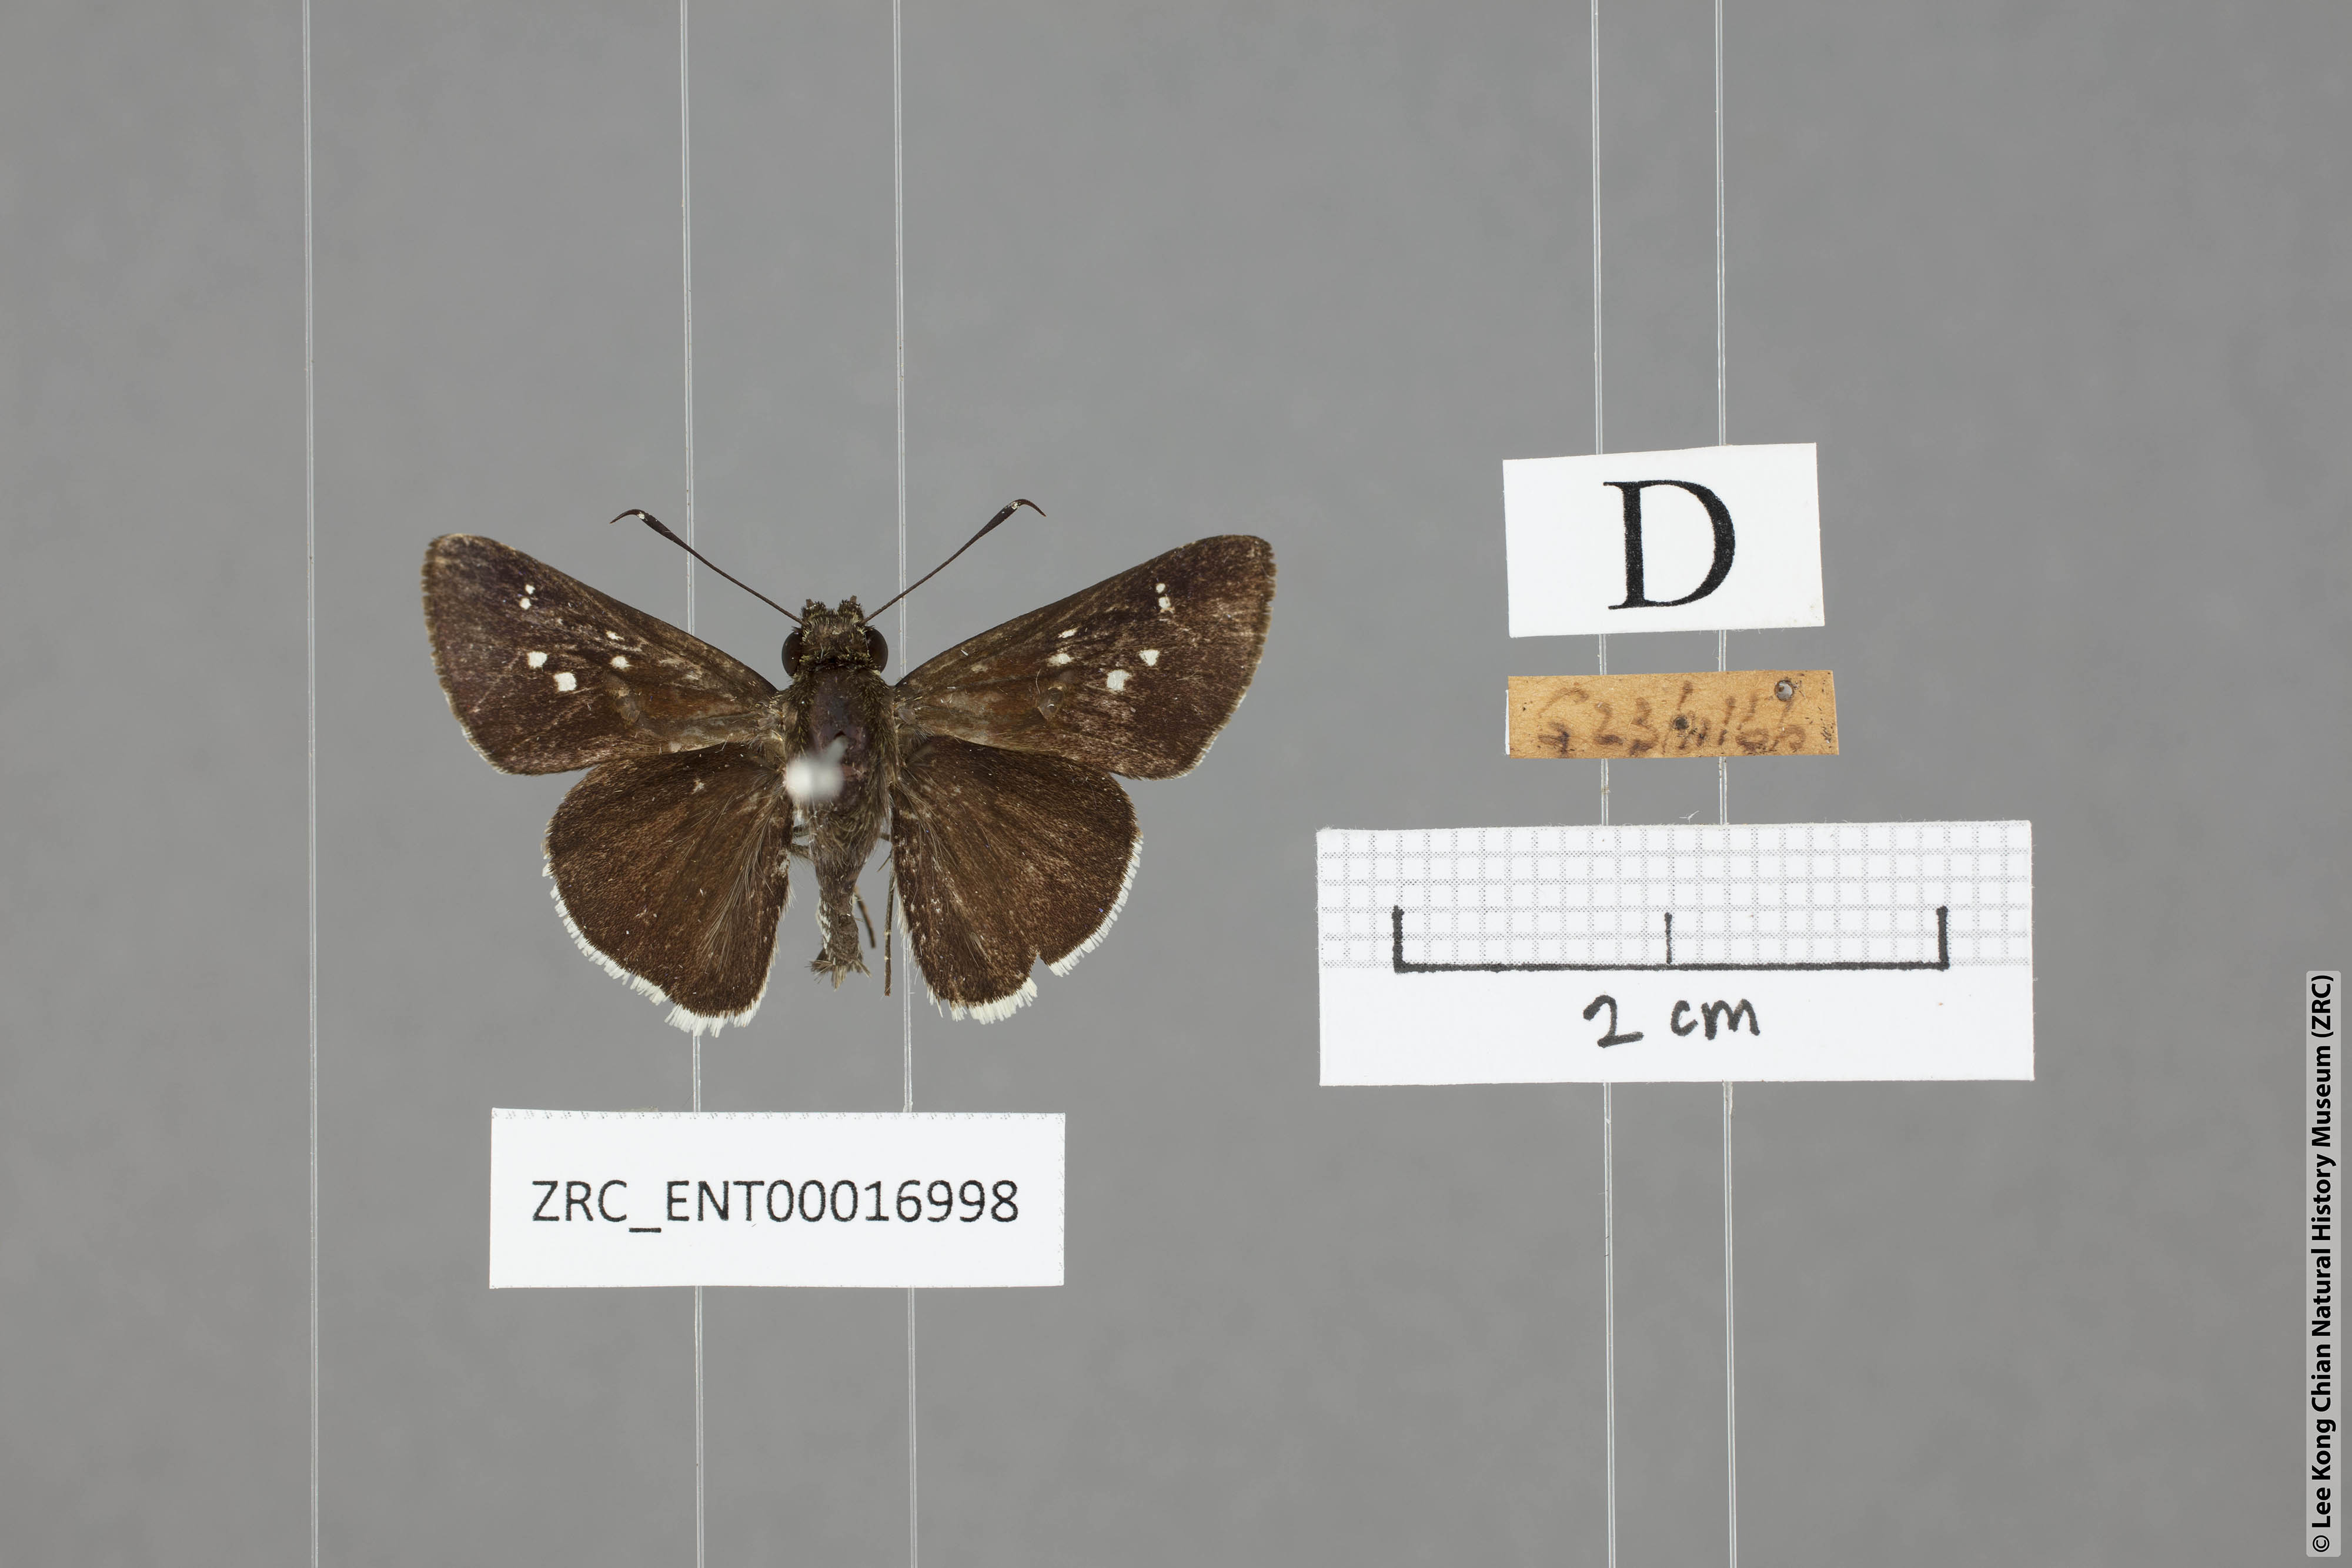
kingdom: Animalia
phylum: Arthropoda
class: Insecta
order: Lepidoptera
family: Hesperiidae
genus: Halpe
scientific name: Halpe insignis
